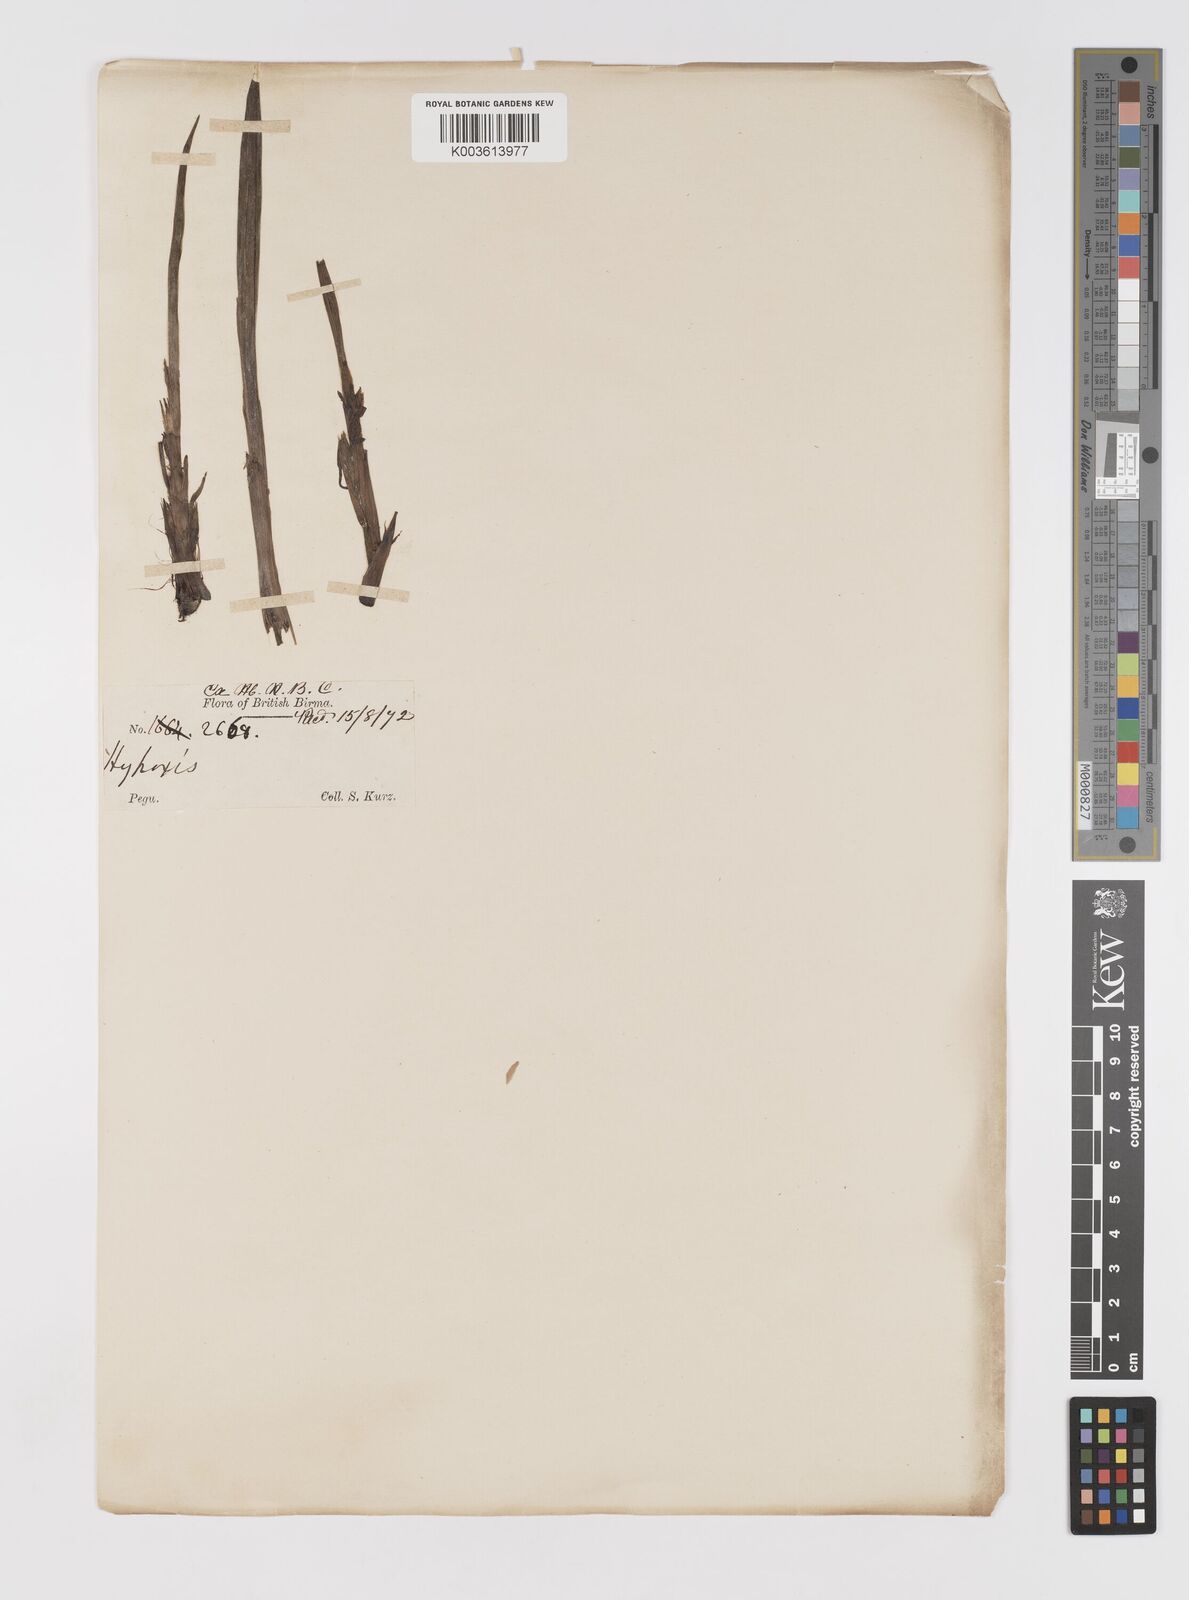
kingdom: Plantae
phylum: Tracheophyta
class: Liliopsida
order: Asparagales
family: Hypoxidaceae
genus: Curculigo
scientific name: Curculigo orchioides
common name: Golden eye-grass
